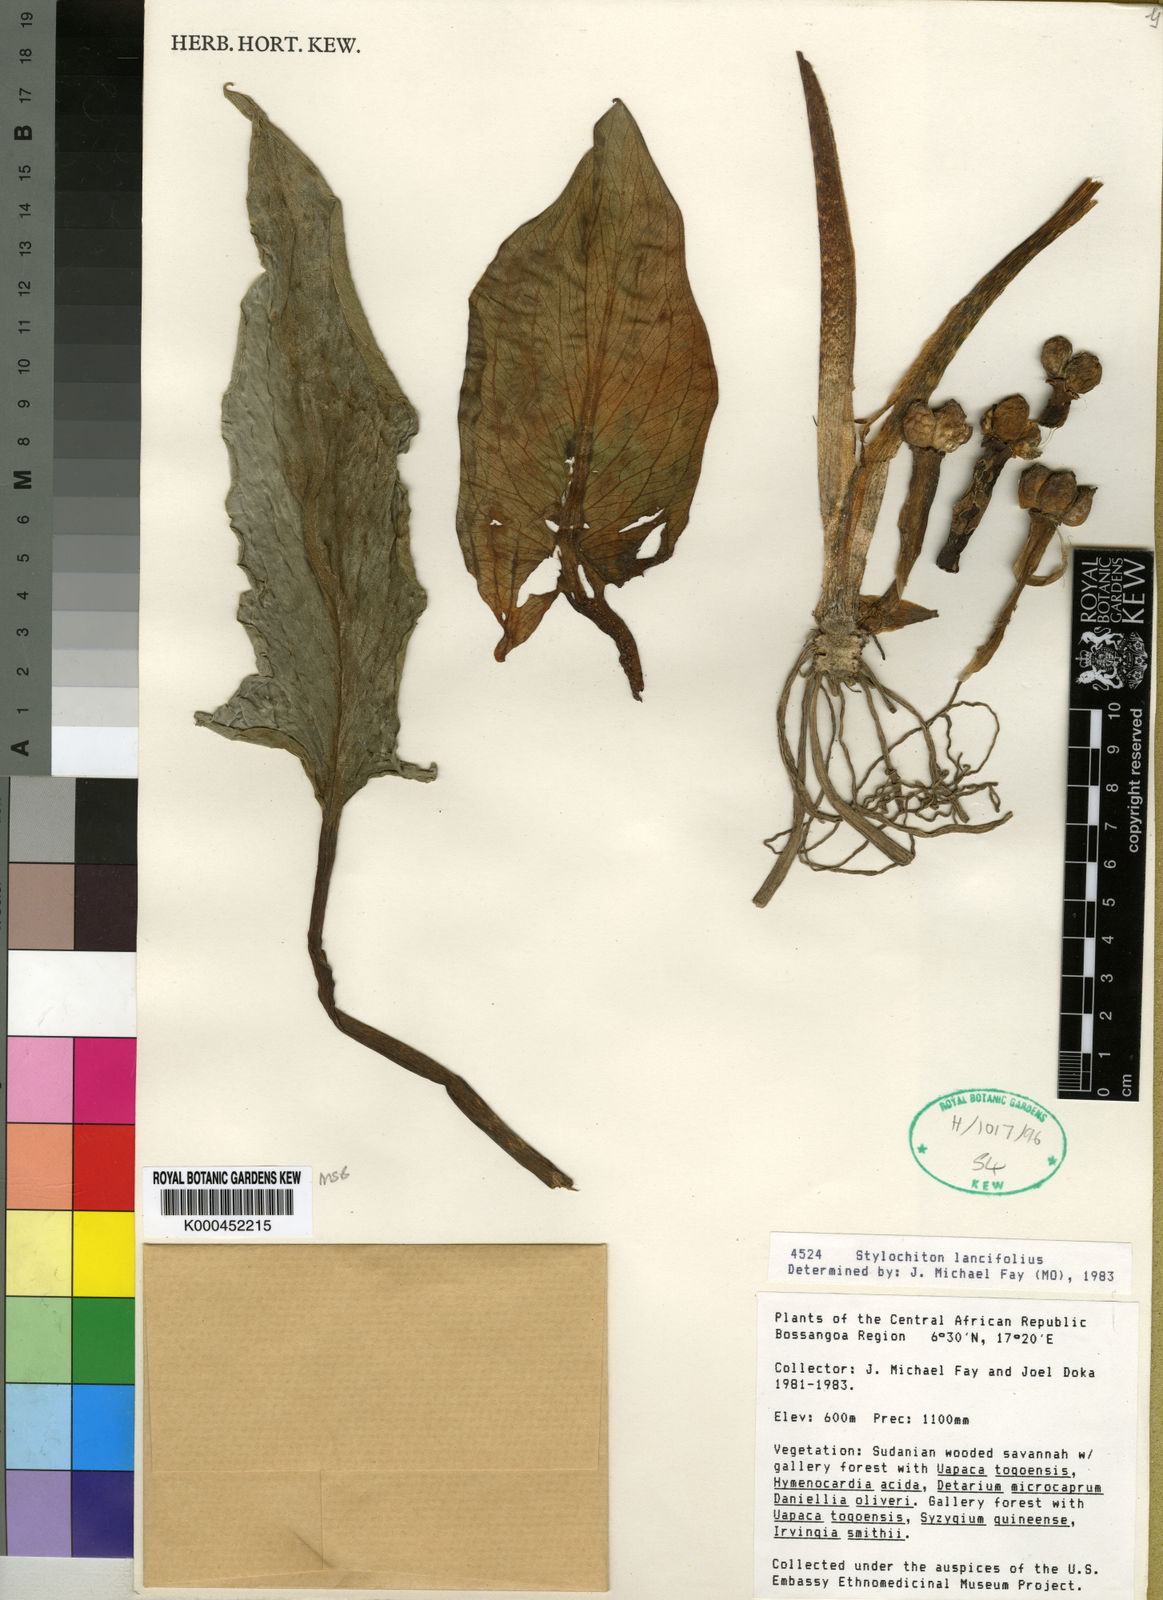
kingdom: Plantae
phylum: Tracheophyta
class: Liliopsida
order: Alismatales
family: Araceae
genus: Stylochaeton
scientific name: Stylochaeton lancifolium
